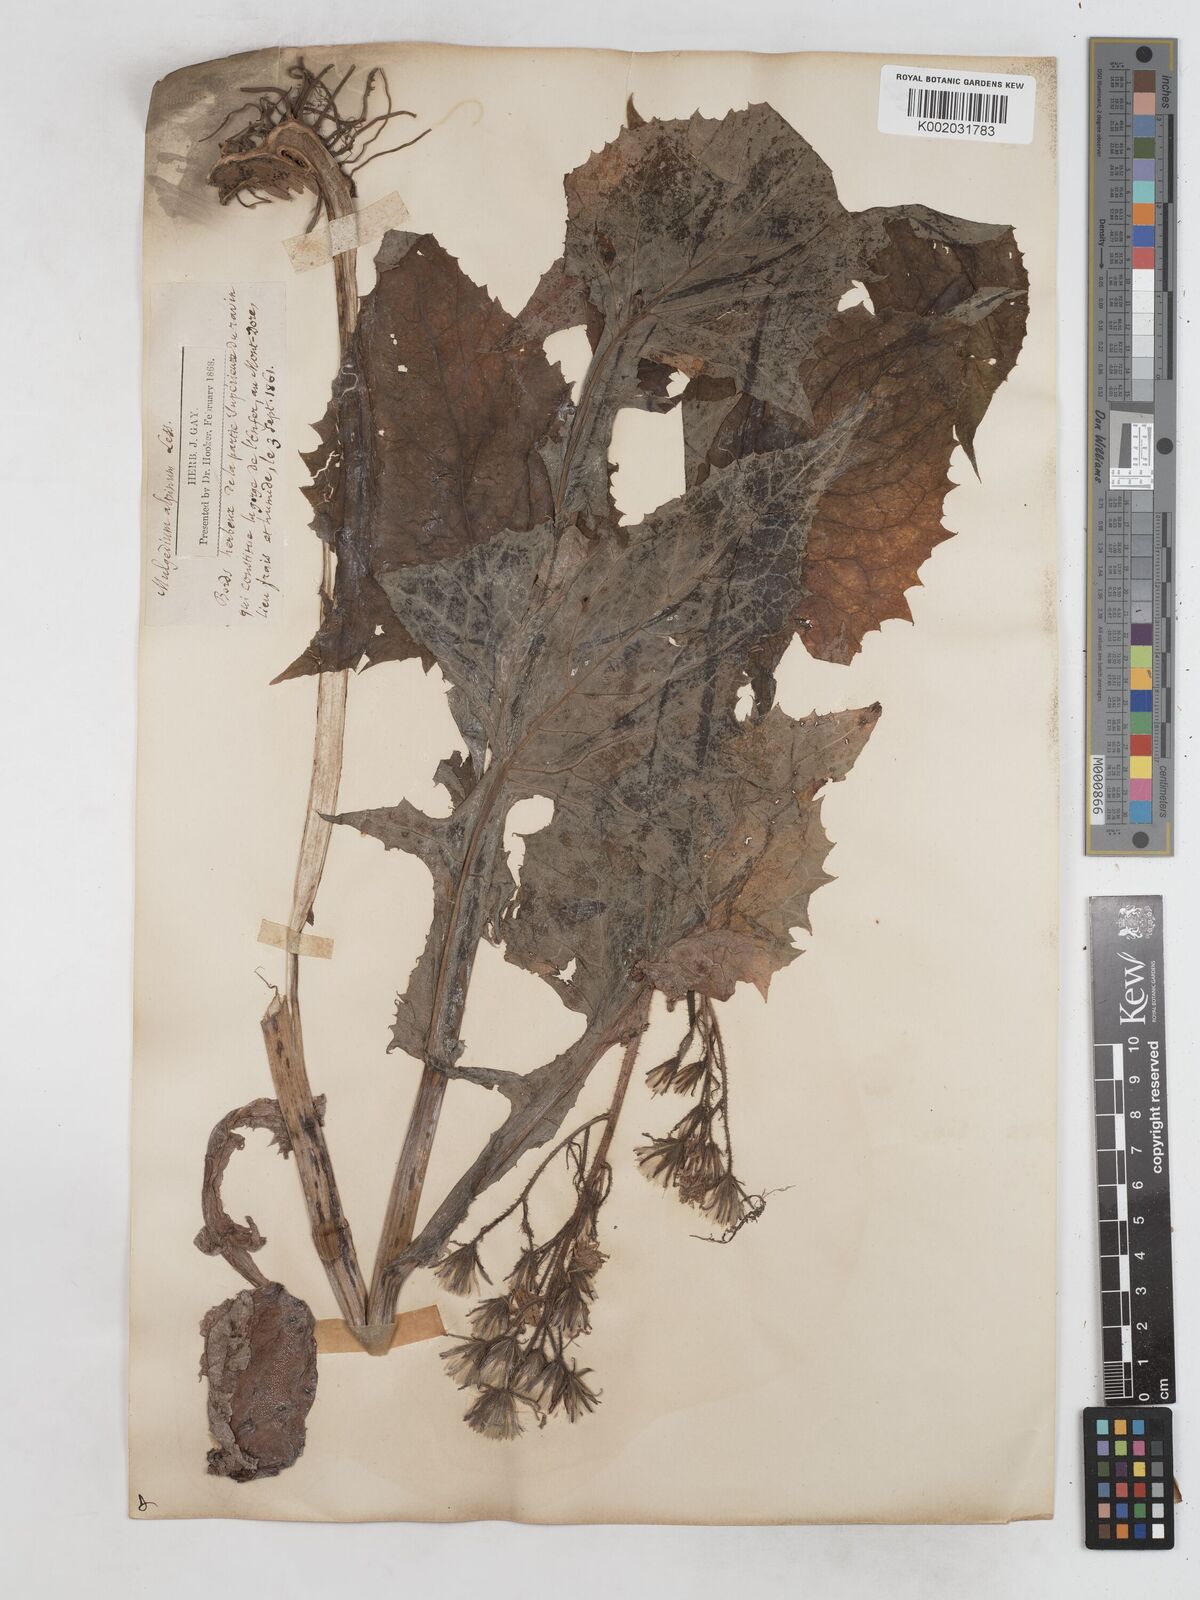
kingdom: Plantae
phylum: Tracheophyta
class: Magnoliopsida
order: Asterales
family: Asteraceae
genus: Cicerbita
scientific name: Cicerbita alpina
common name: Alpine blue-sow-thistle
